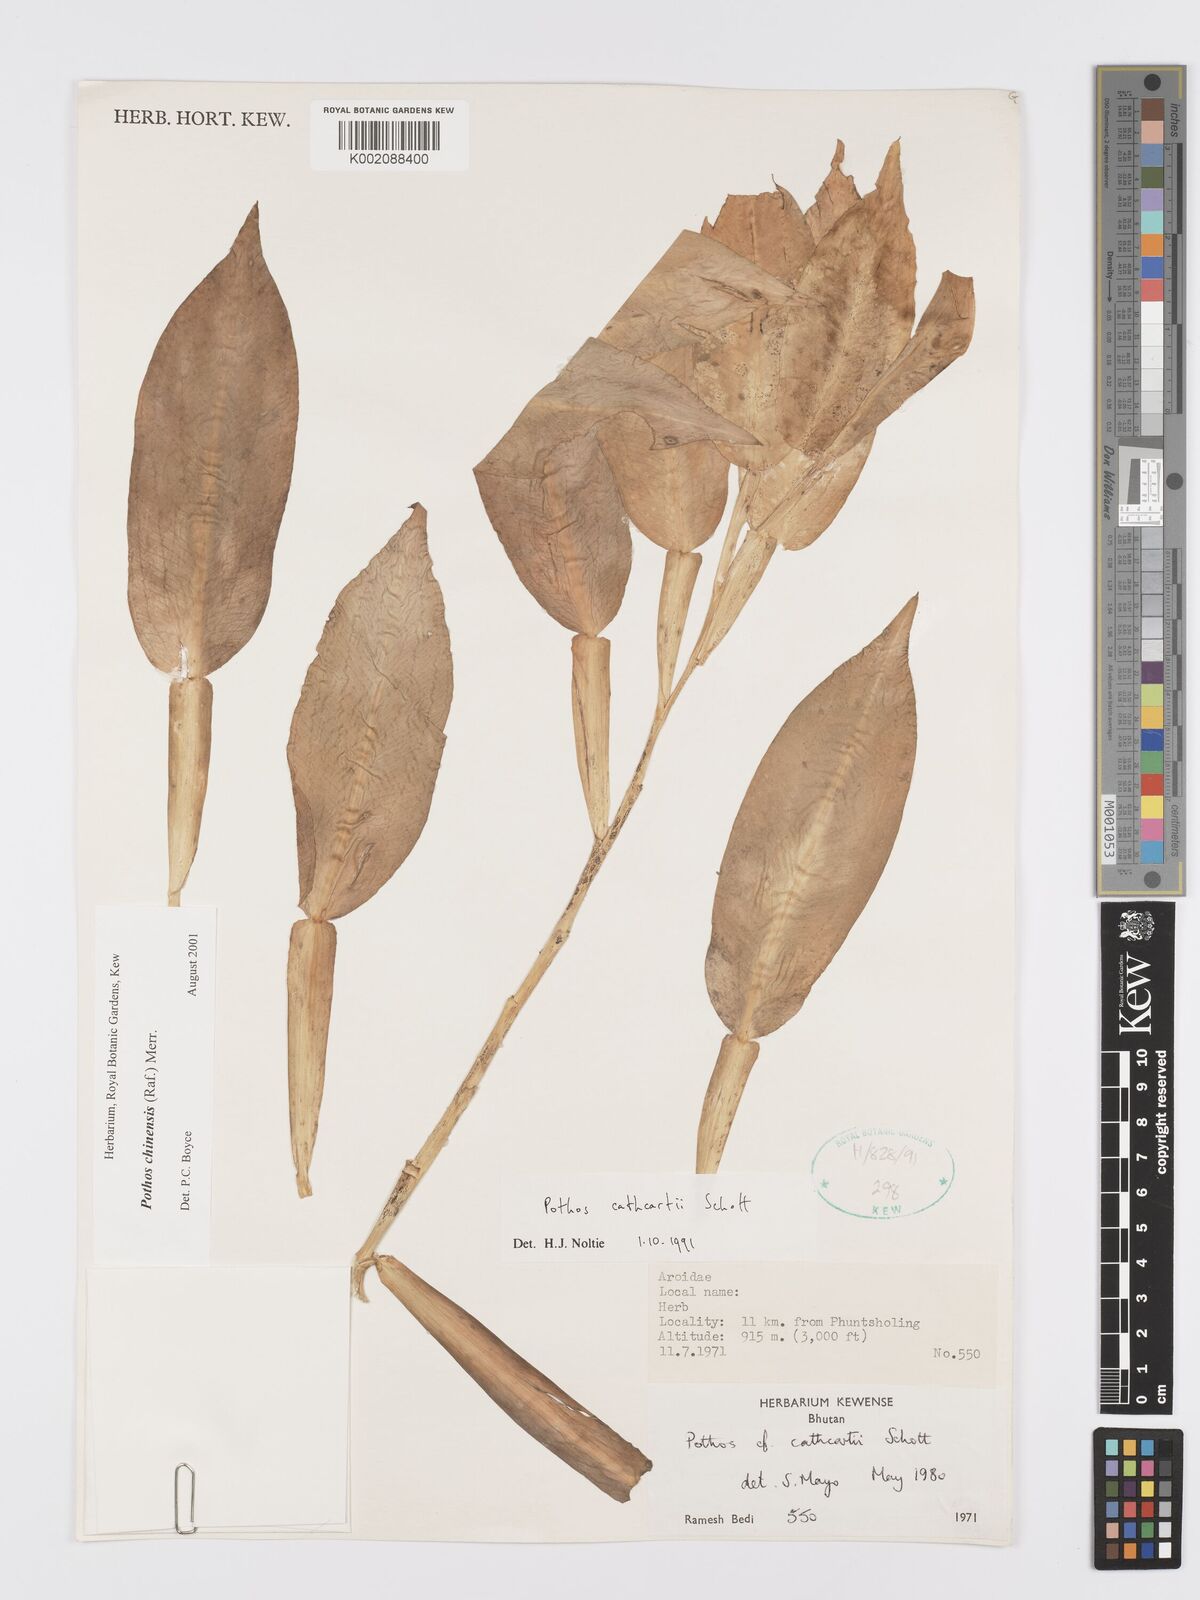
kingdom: Plantae
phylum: Tracheophyta
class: Liliopsida
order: Alismatales
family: Araceae
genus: Pothos
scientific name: Pothos chinensis
